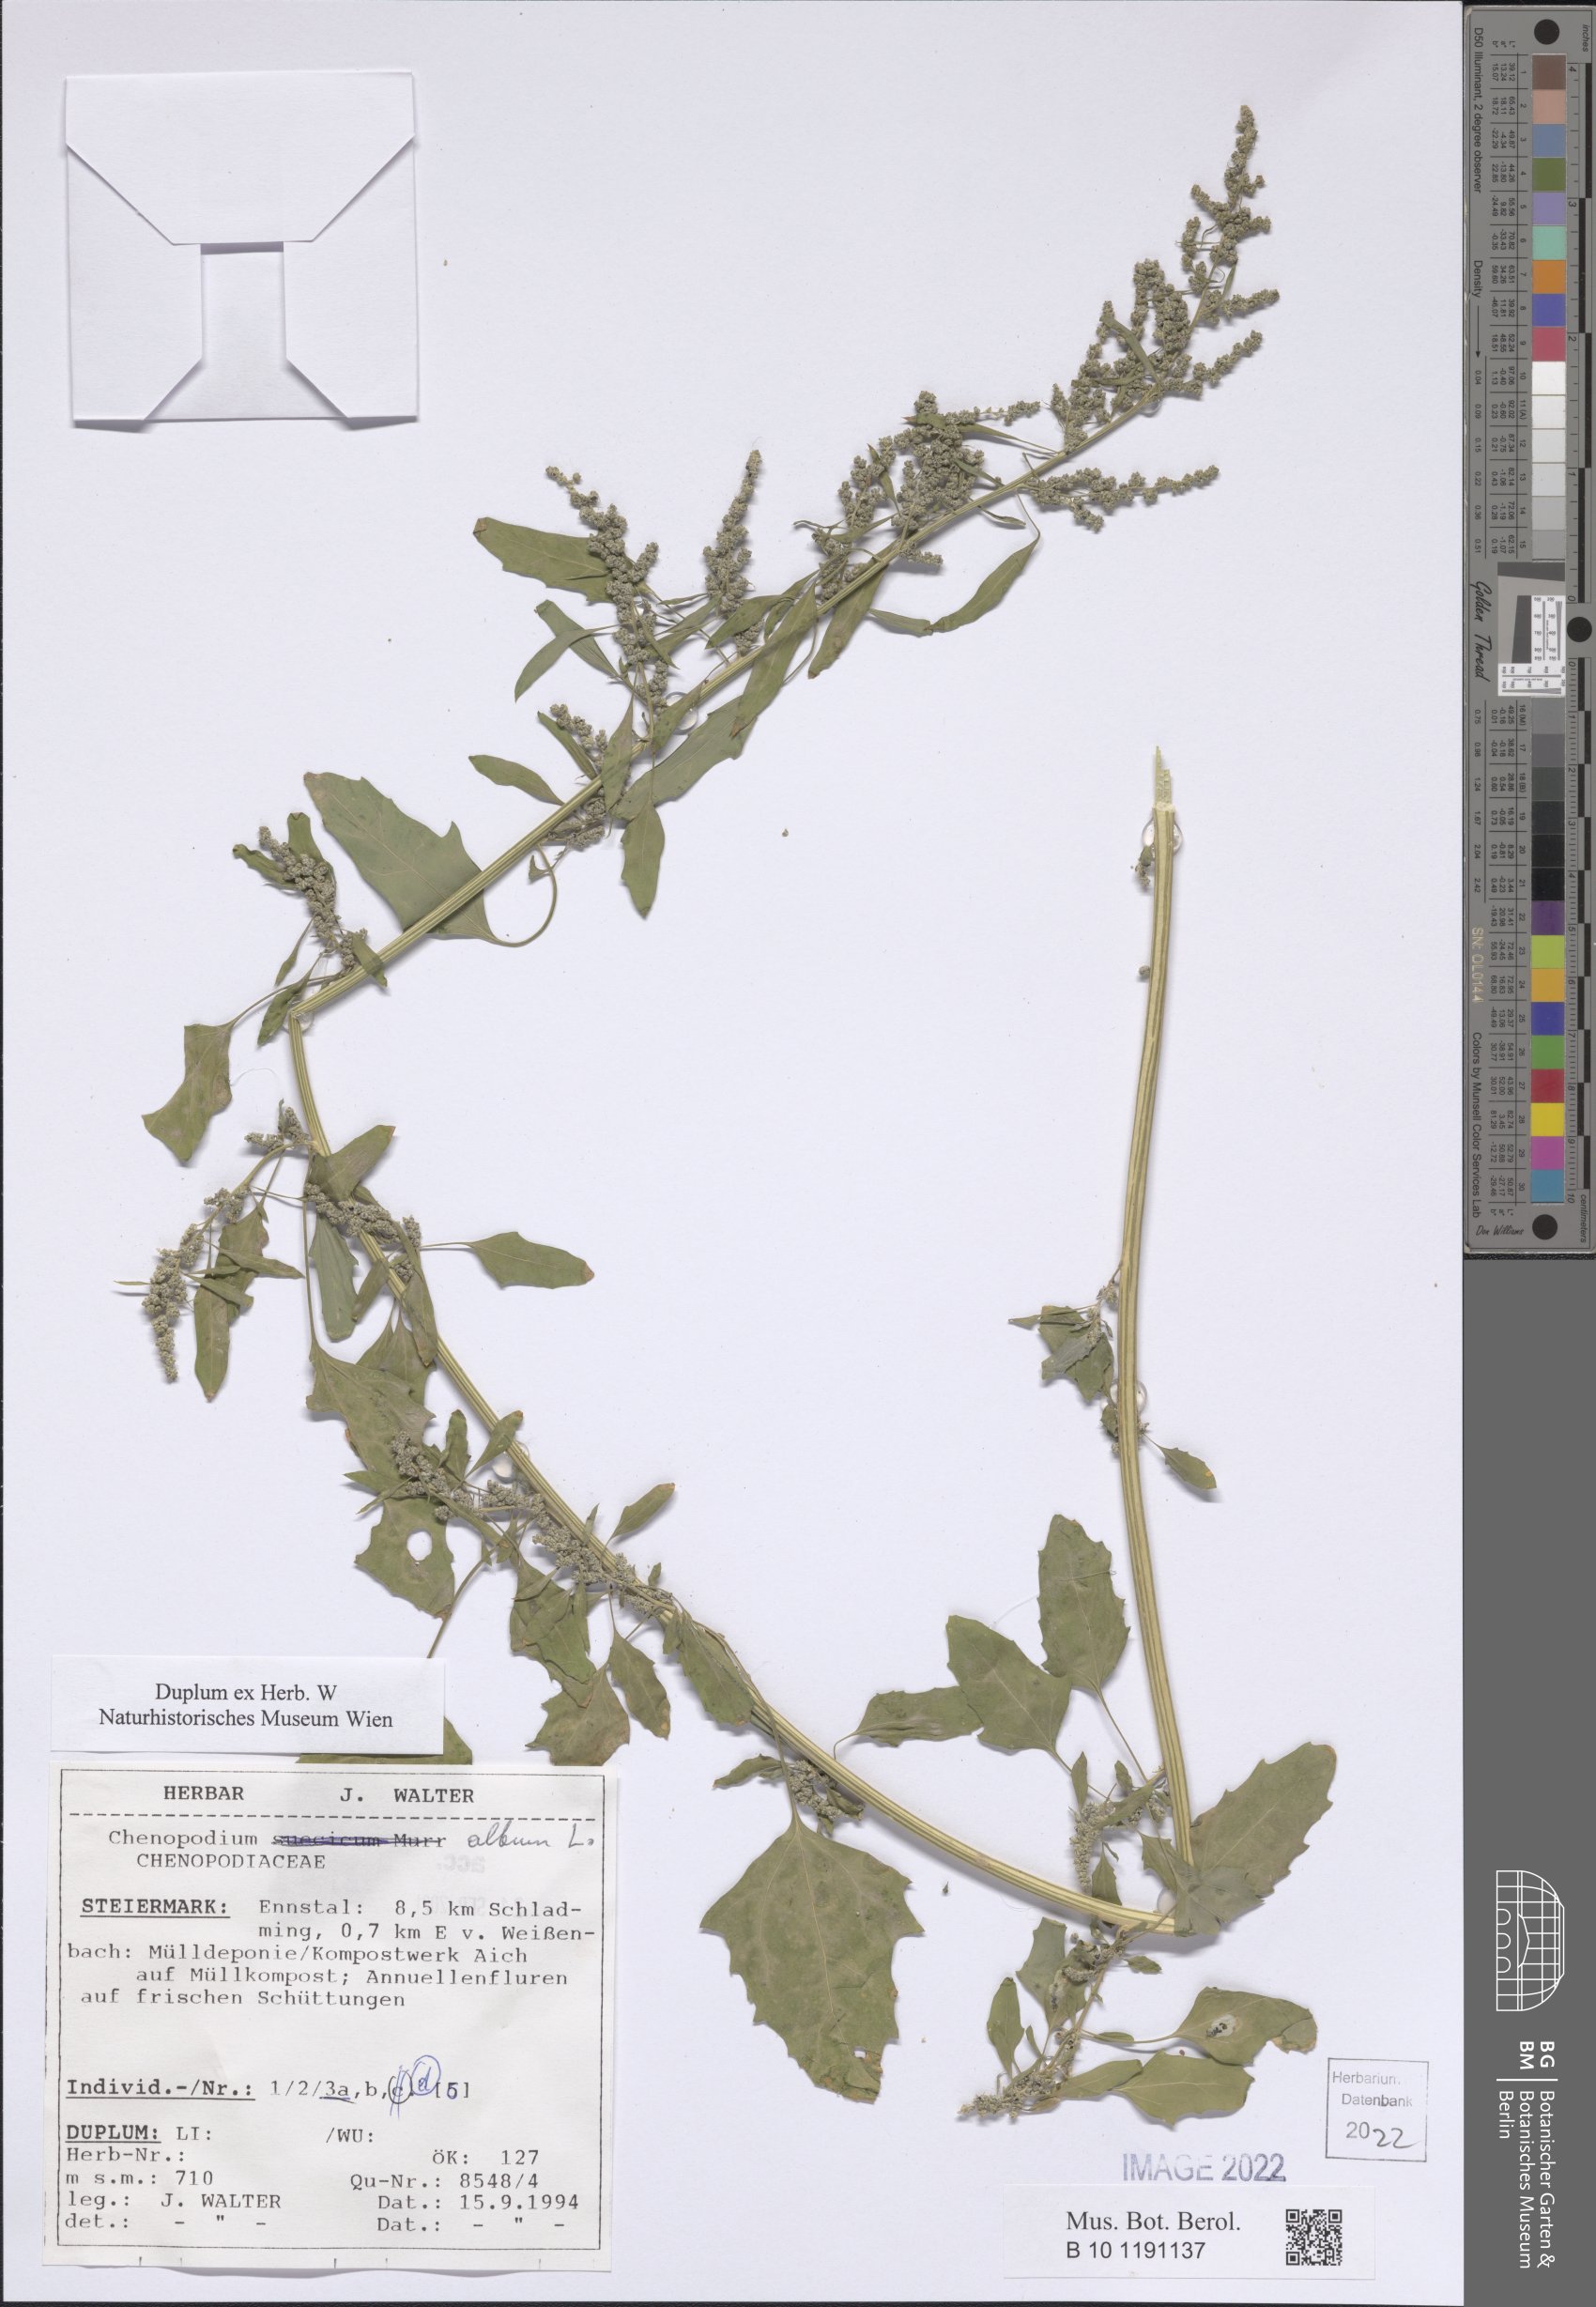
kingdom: Plantae
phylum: Tracheophyta
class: Magnoliopsida
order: Caryophyllales
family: Amaranthaceae
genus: Chenopodium
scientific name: Chenopodium album
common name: Fat-hen
